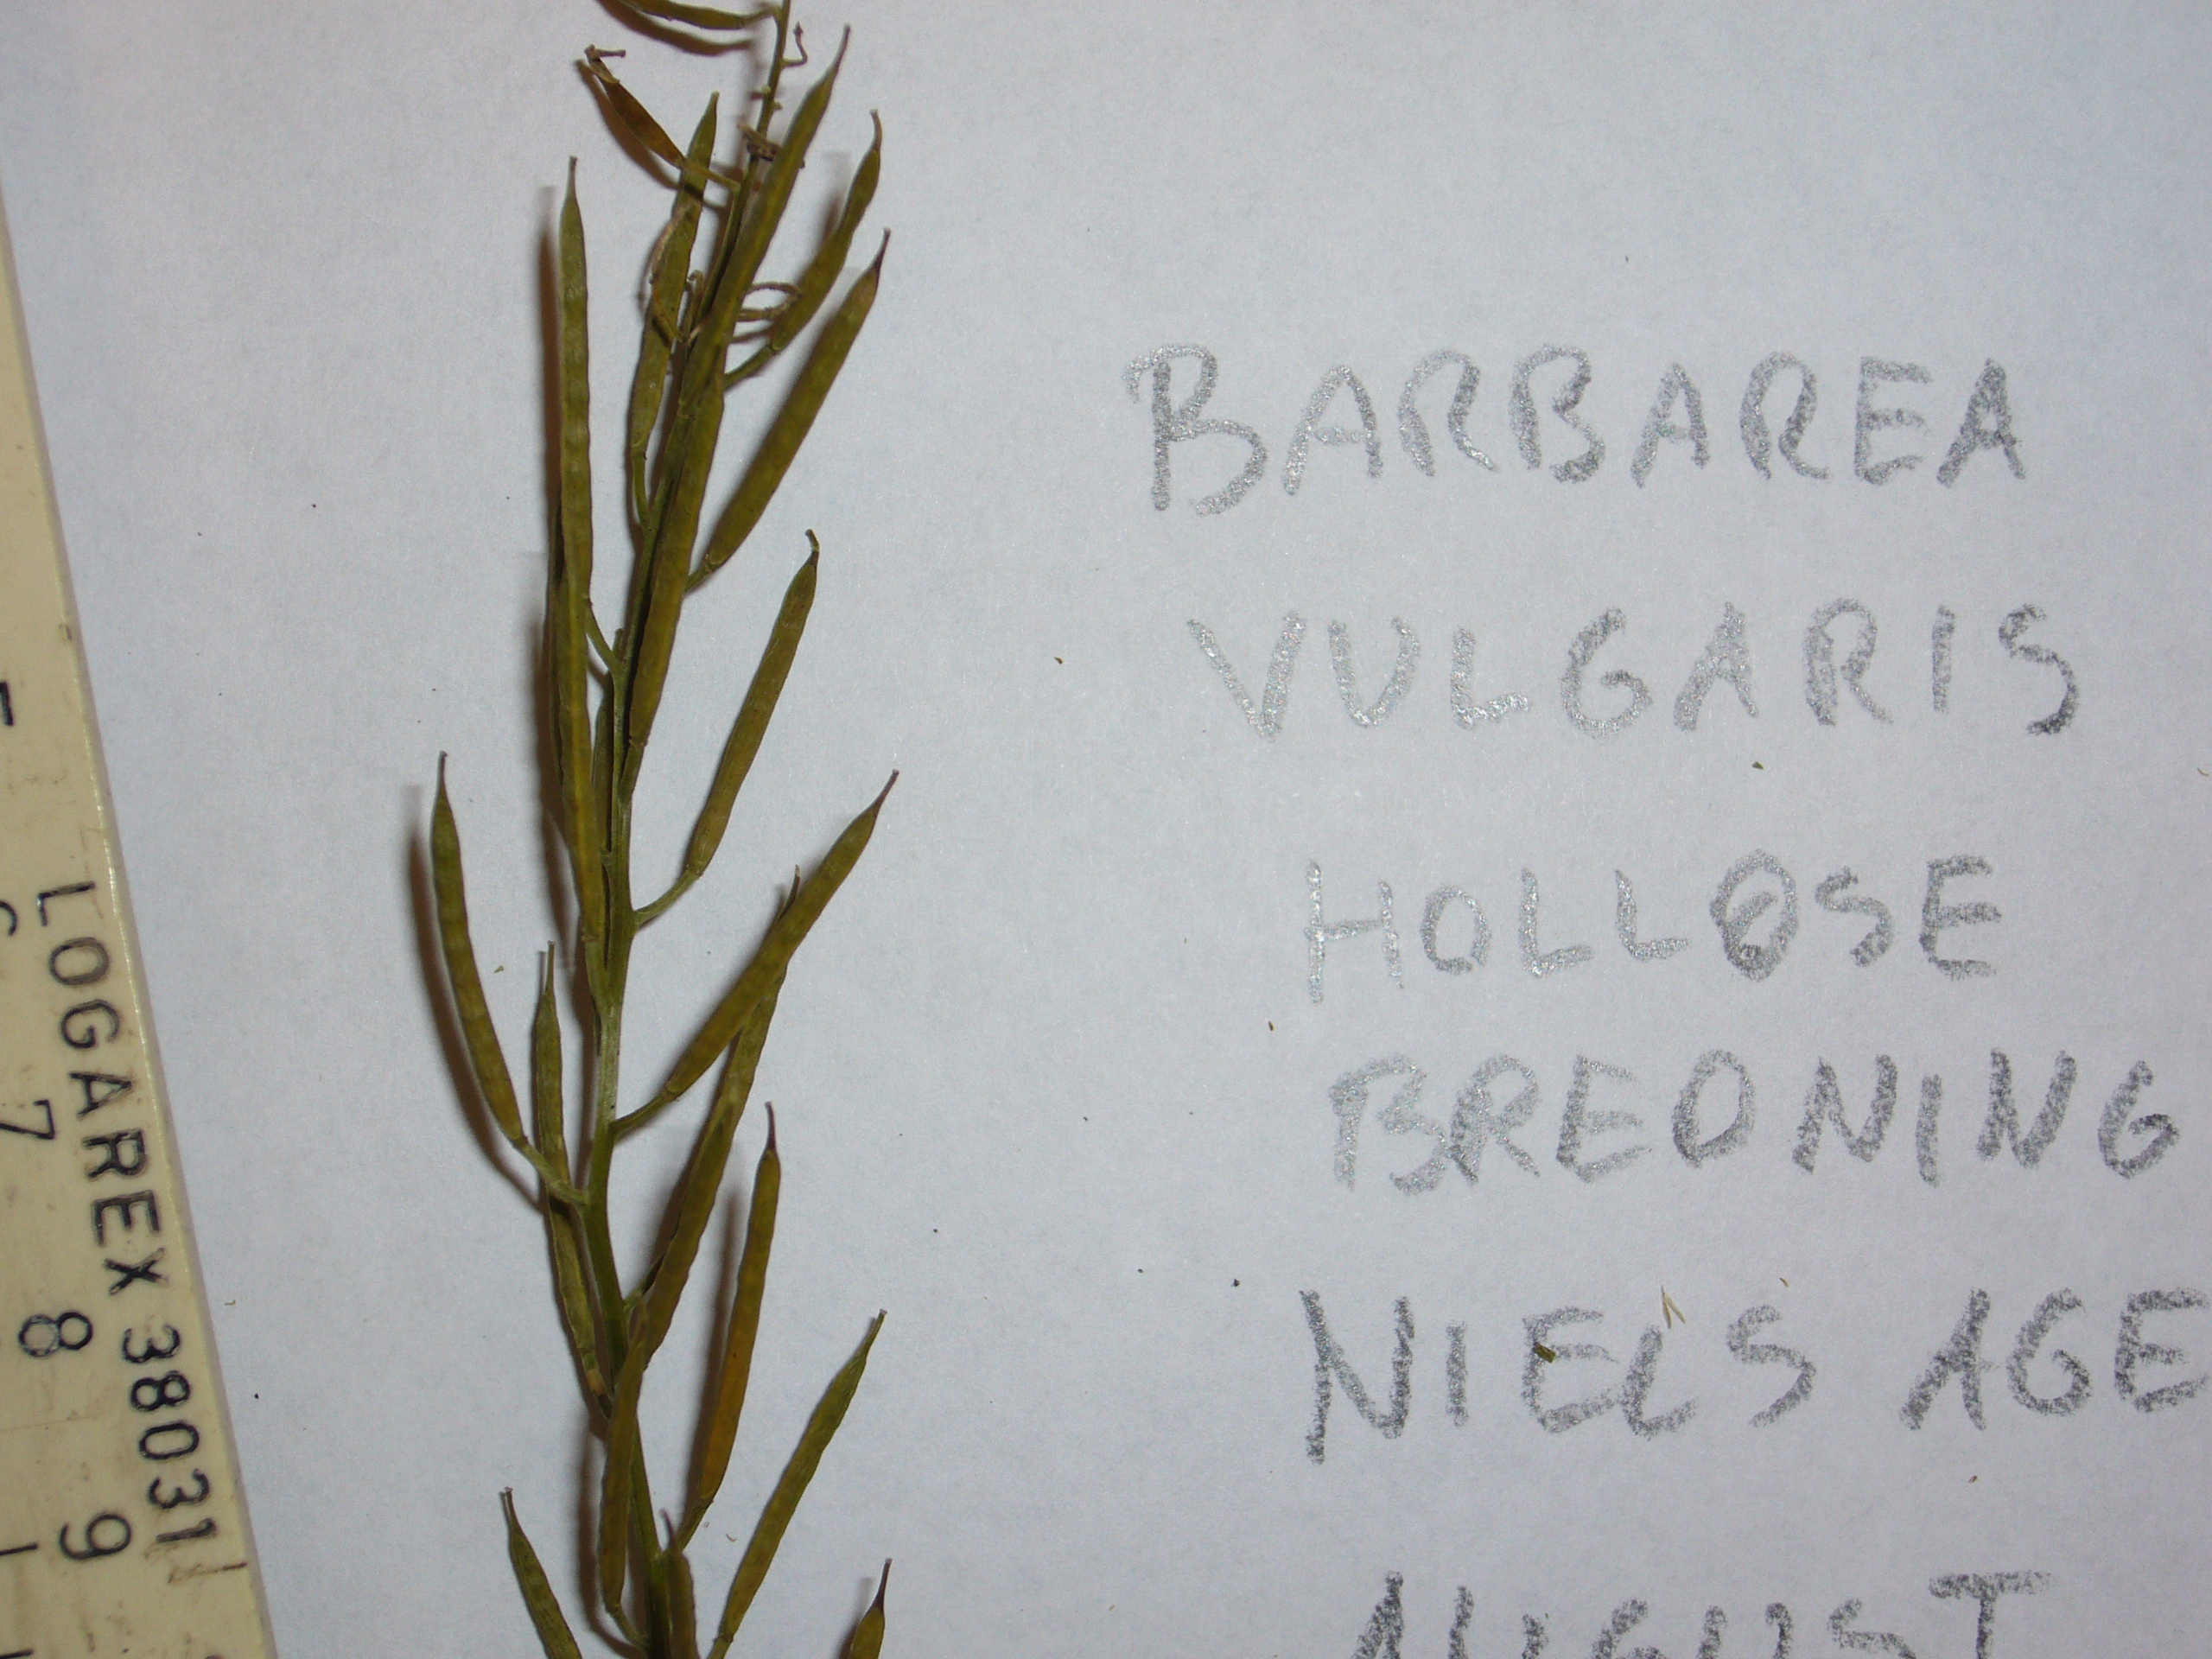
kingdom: Plantae
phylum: Tracheophyta
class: Magnoliopsida
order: Brassicales
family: Brassicaceae
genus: Barbarea
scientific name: Barbarea vulgaris
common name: Cressy-greens
